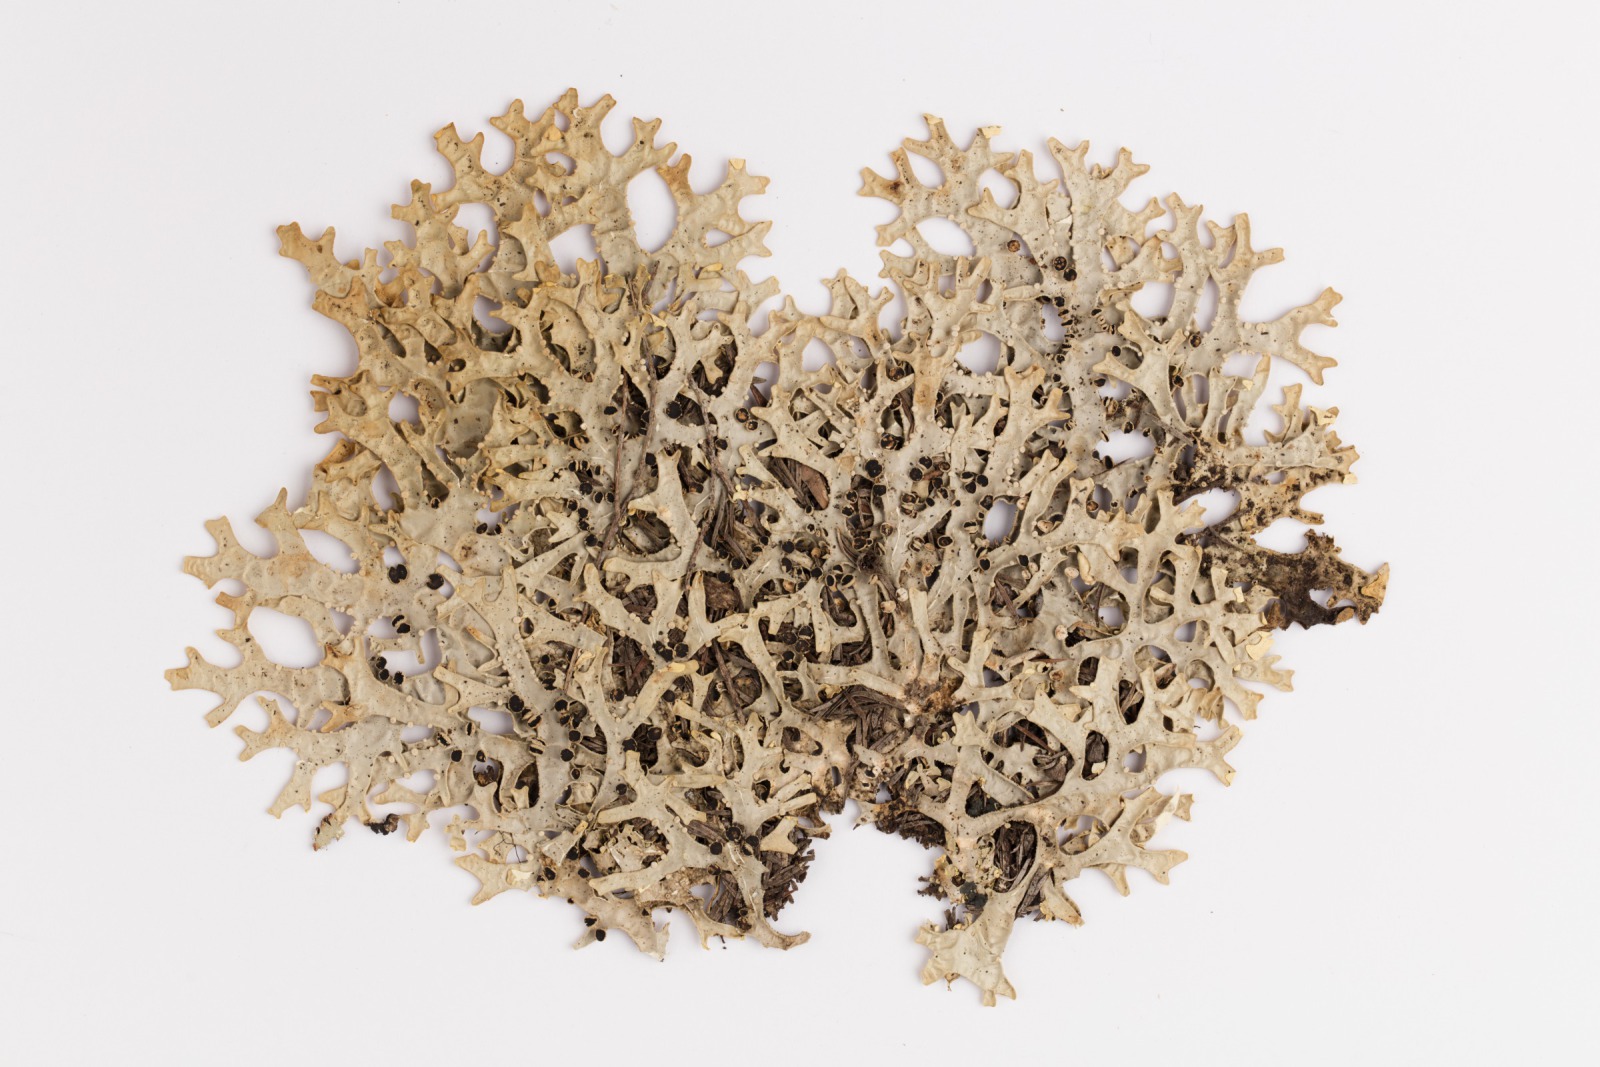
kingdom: Fungi
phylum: Ascomycota
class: Lecanoromycetes
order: Peltigerales
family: Lobariaceae
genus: Pseudocyphellaria
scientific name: Pseudocyphellaria carpoloma
